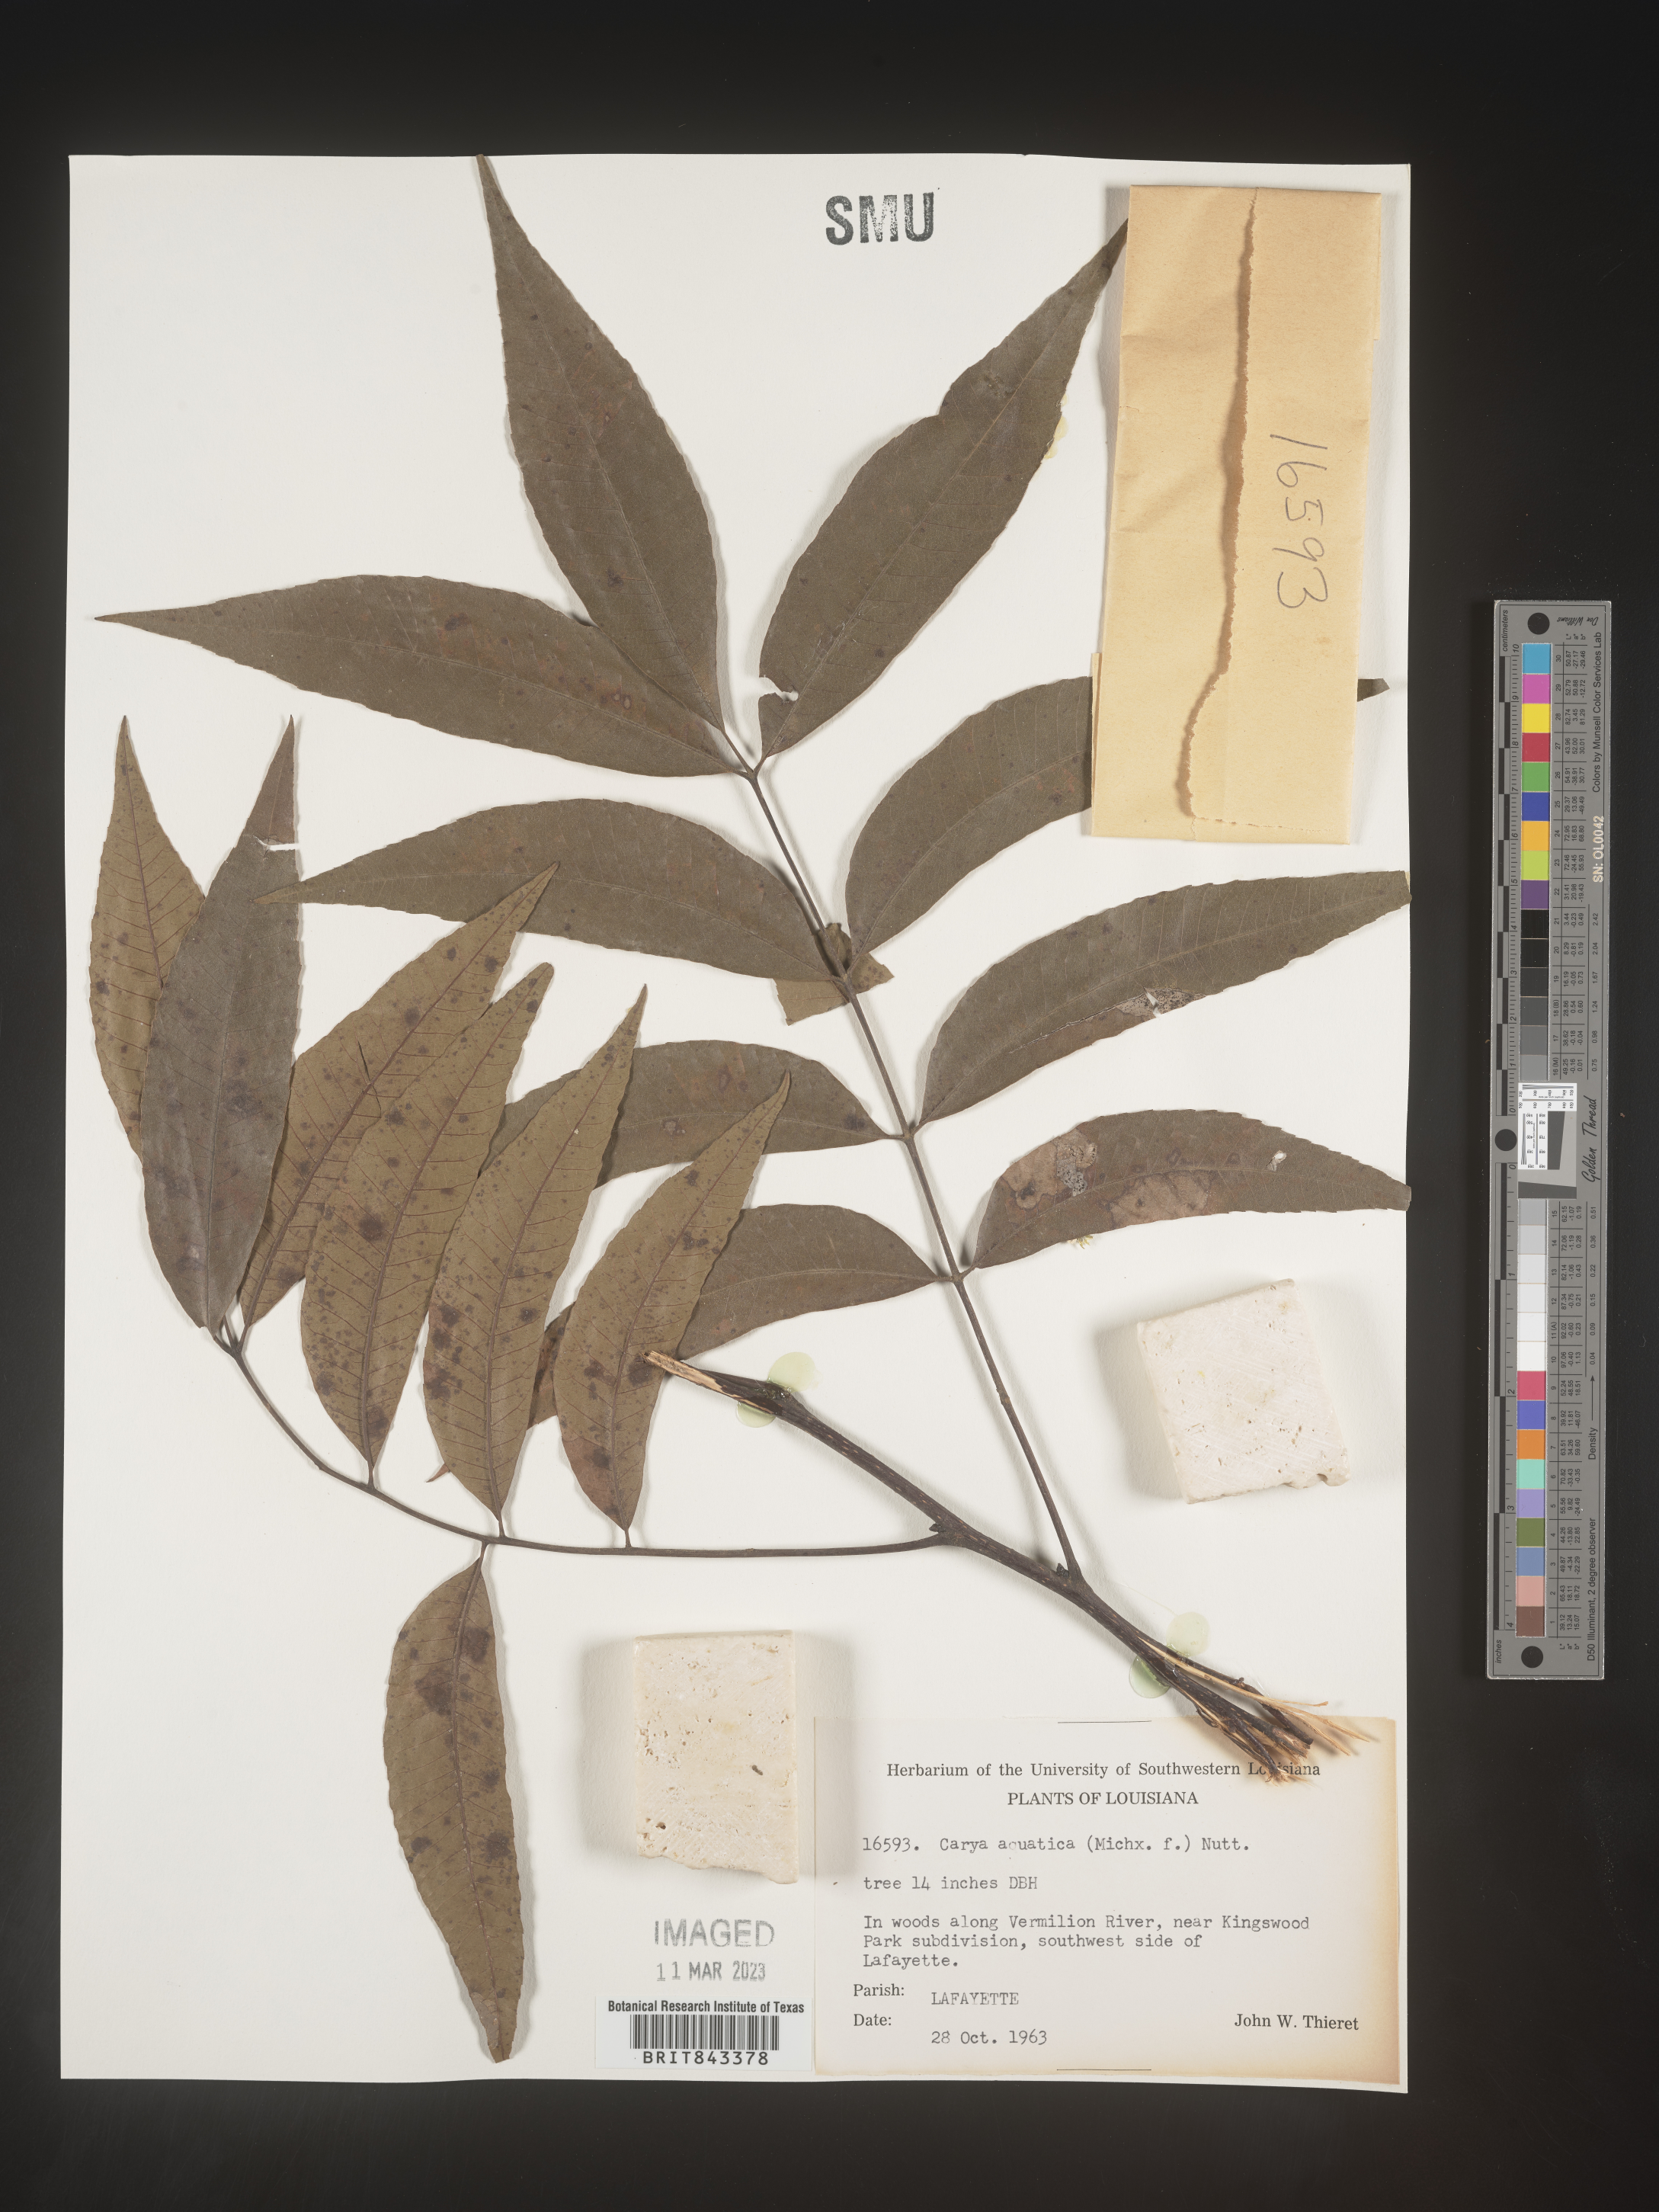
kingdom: Plantae
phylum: Tracheophyta
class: Magnoliopsida
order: Fagales
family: Juglandaceae
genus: Carya
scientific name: Carya aquatica
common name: Water hickory
